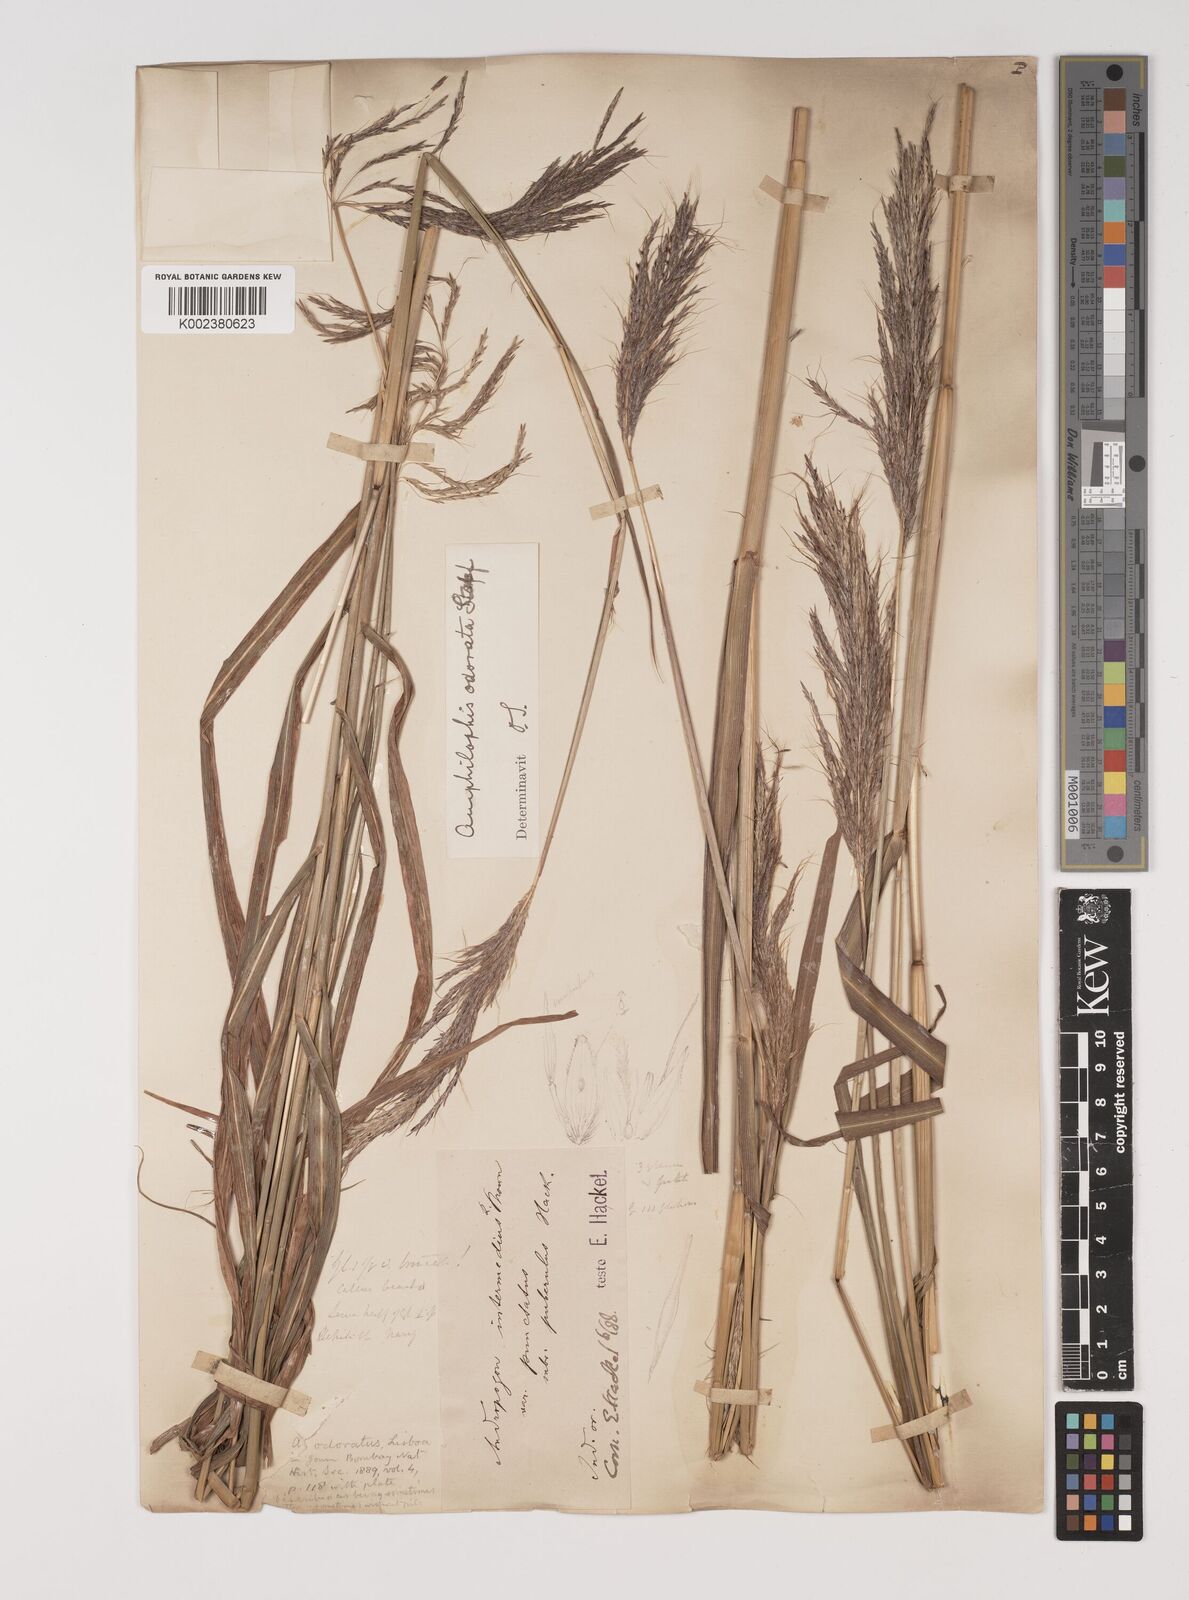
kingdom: Plantae
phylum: Tracheophyta
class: Liliopsida
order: Poales
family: Poaceae
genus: Bothriochloa
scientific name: Bothriochloa bladhii
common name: Caucasian bluestem
